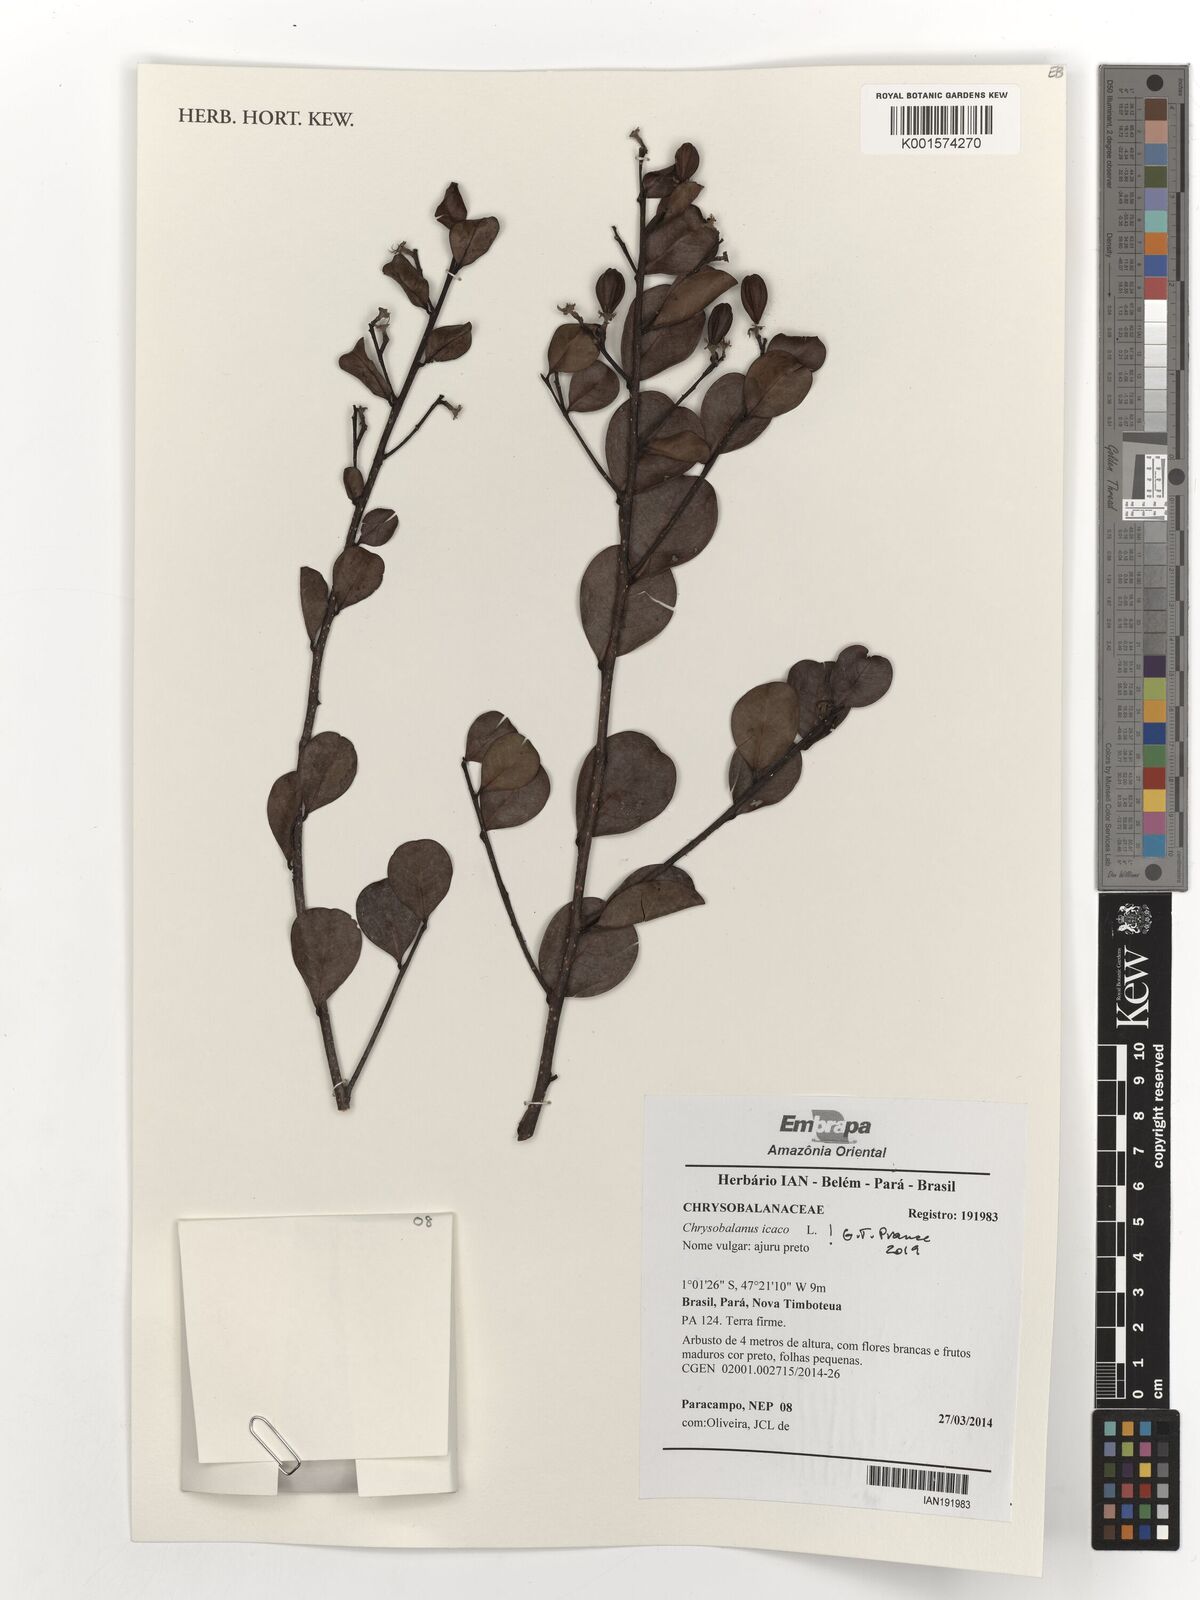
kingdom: Plantae
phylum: Tracheophyta
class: Magnoliopsida
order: Malpighiales
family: Chrysobalanaceae
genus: Chrysobalanus
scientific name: Chrysobalanus icaco
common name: Coco plum
